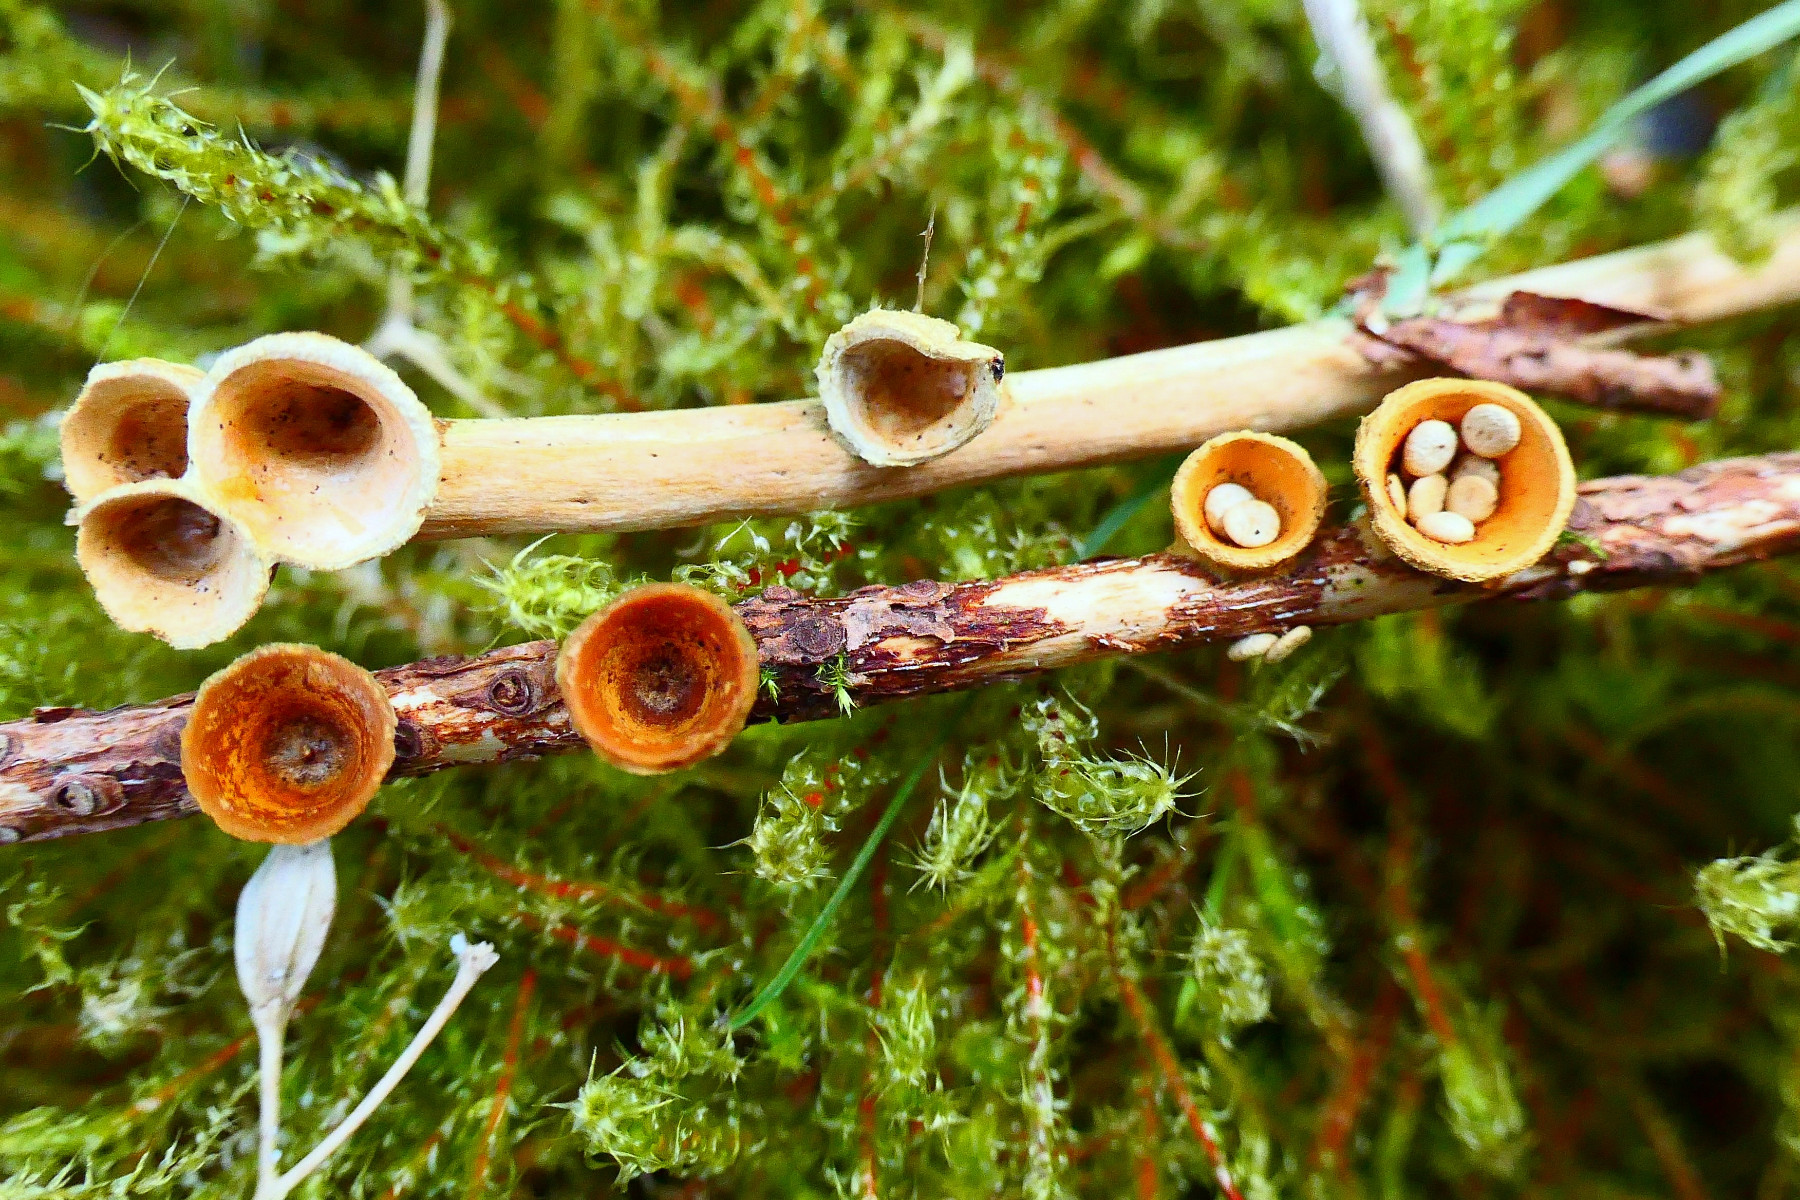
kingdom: Fungi
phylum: Basidiomycota
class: Agaricomycetes
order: Agaricales
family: Nidulariaceae
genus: Crucibulum
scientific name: Crucibulum crucibuliforme
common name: krukkesvamp
